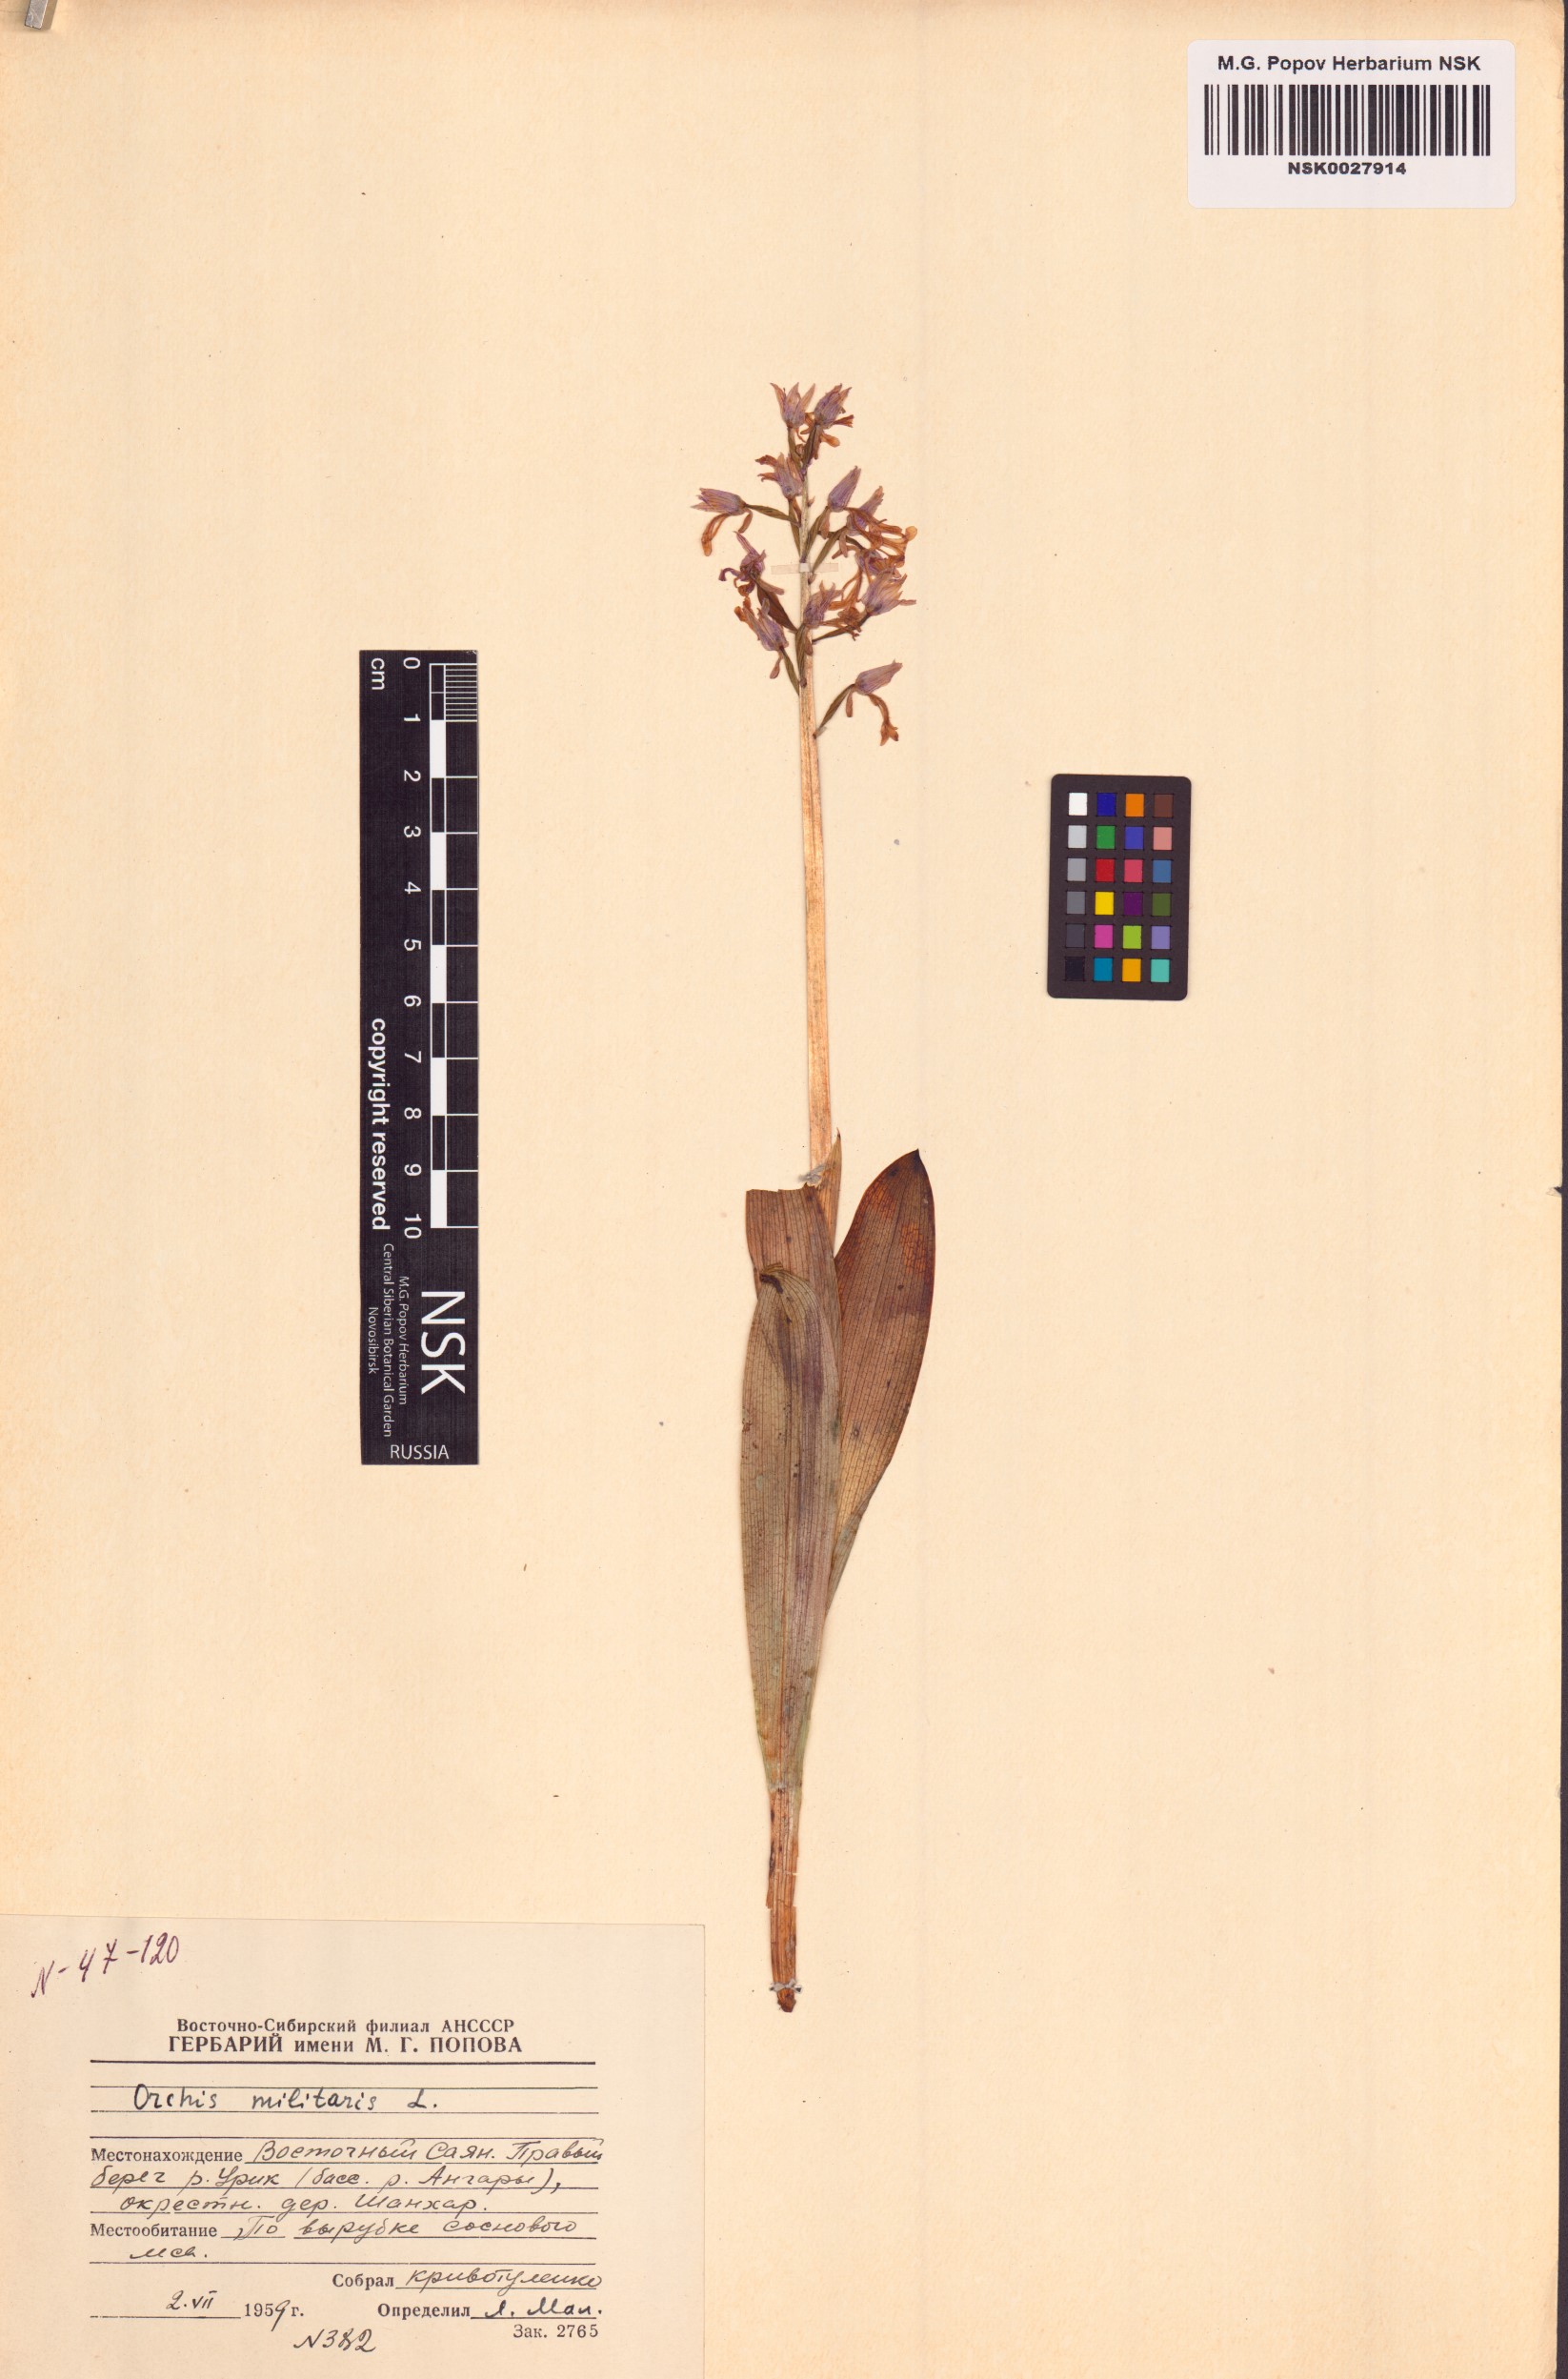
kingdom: Plantae
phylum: Tracheophyta
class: Liliopsida
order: Asparagales
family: Orchidaceae
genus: Orchis
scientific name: Orchis militaris
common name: Military orchid
